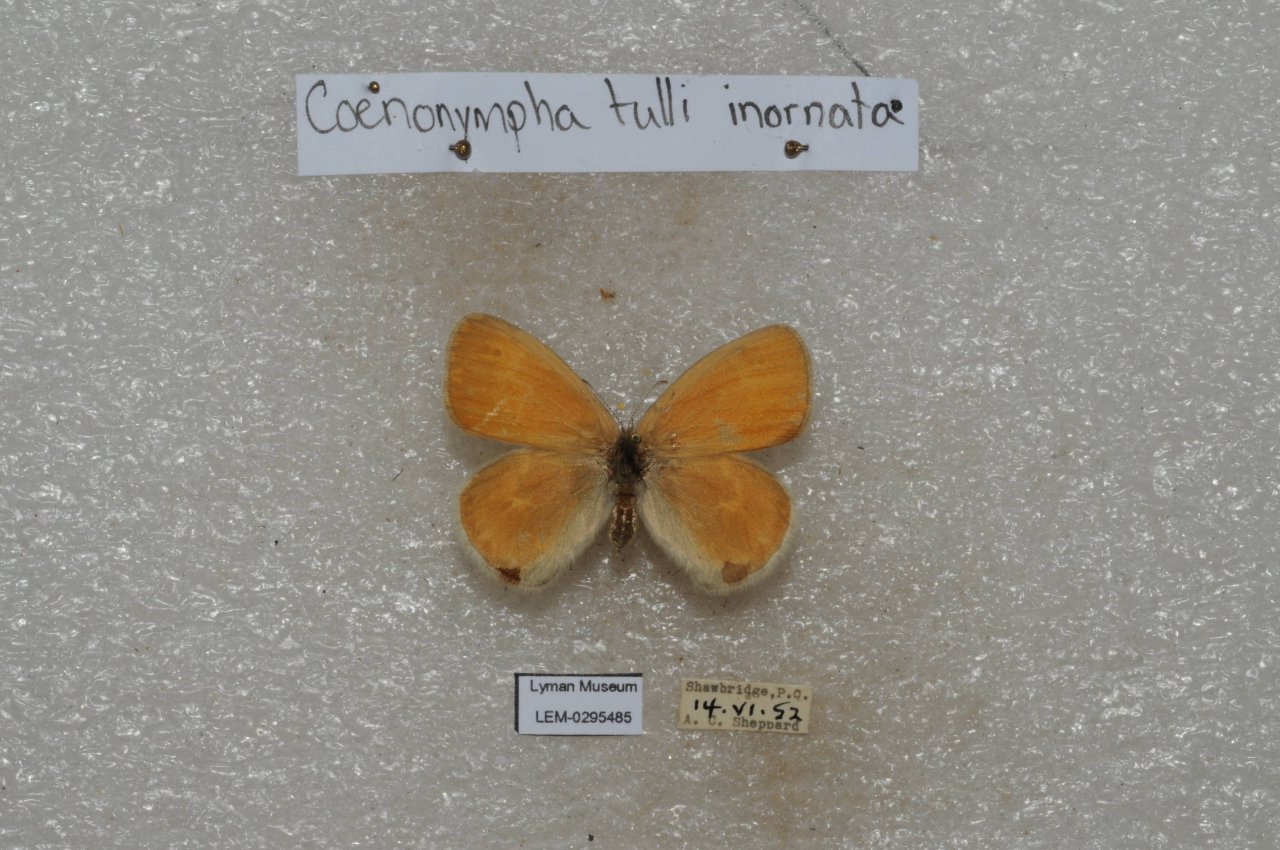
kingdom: Animalia
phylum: Arthropoda
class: Insecta
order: Lepidoptera
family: Nymphalidae
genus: Coenonympha
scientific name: Coenonympha tullia
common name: Large Heath
